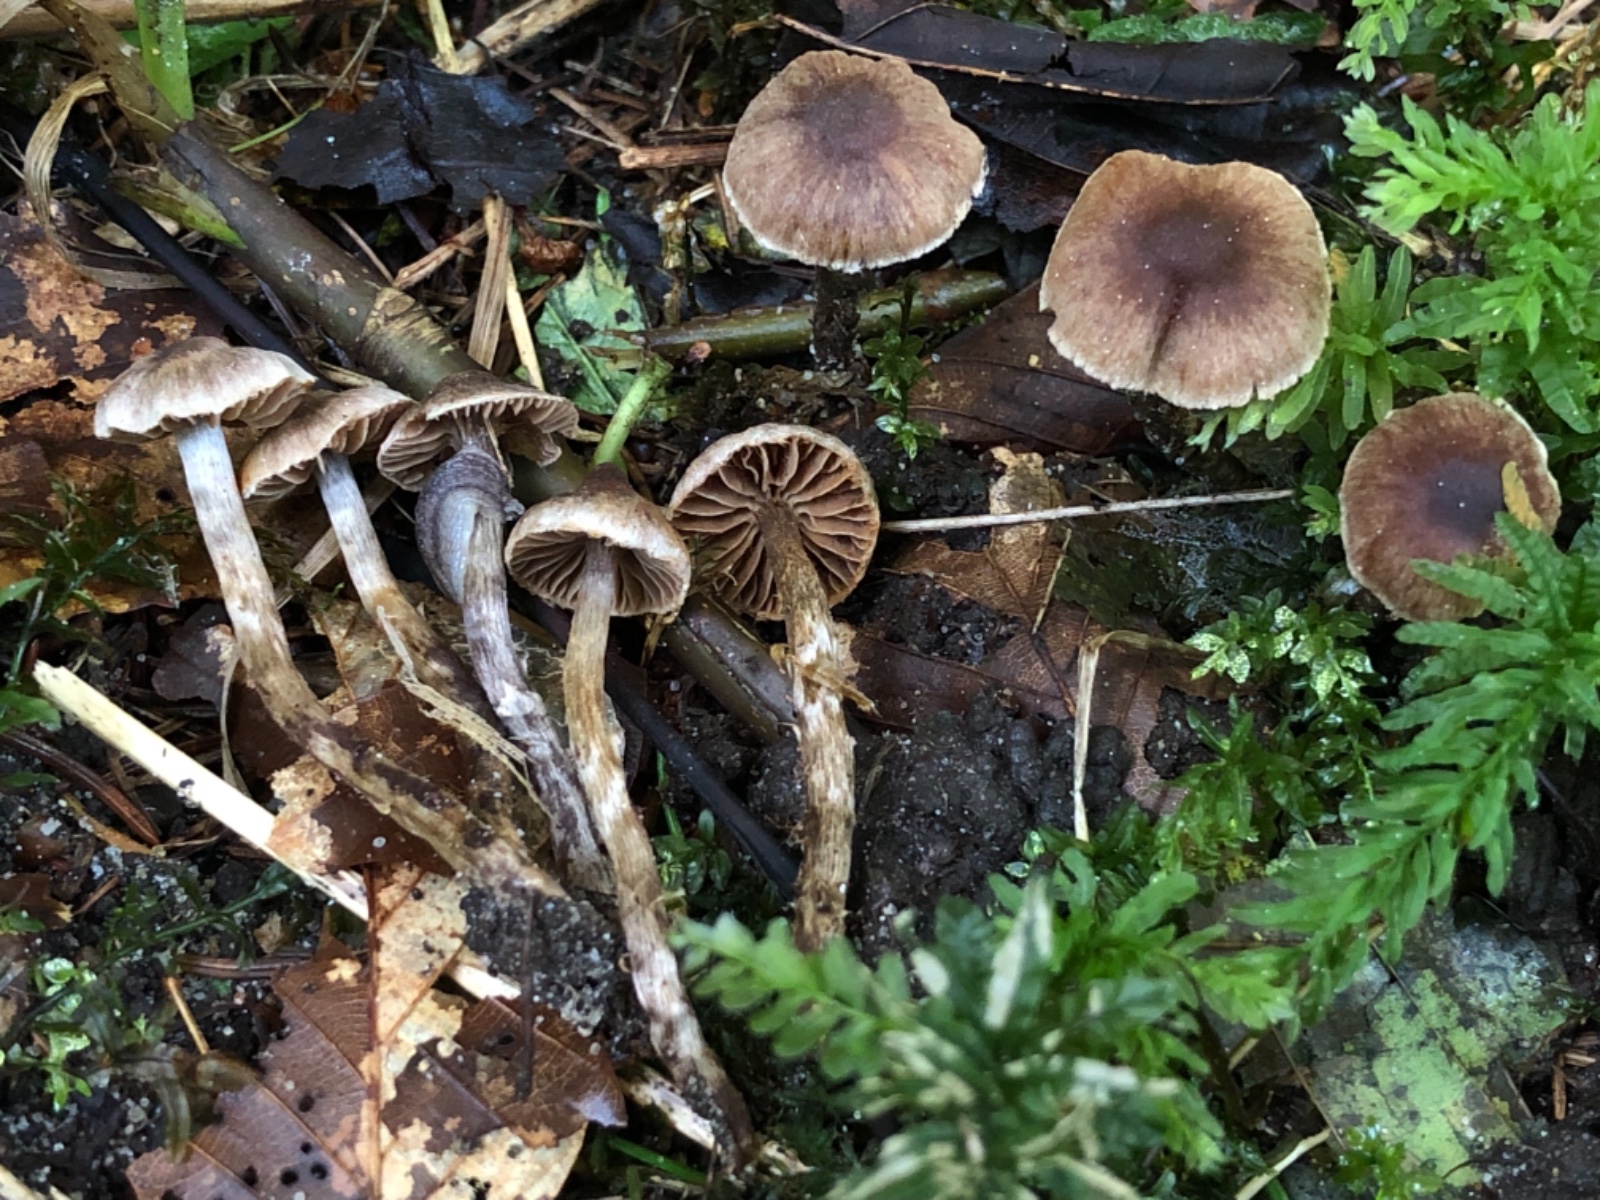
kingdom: Fungi
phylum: Basidiomycota
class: Agaricomycetes
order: Agaricales
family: Cortinariaceae
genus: Cortinarius
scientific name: Cortinarius griseocarneus
